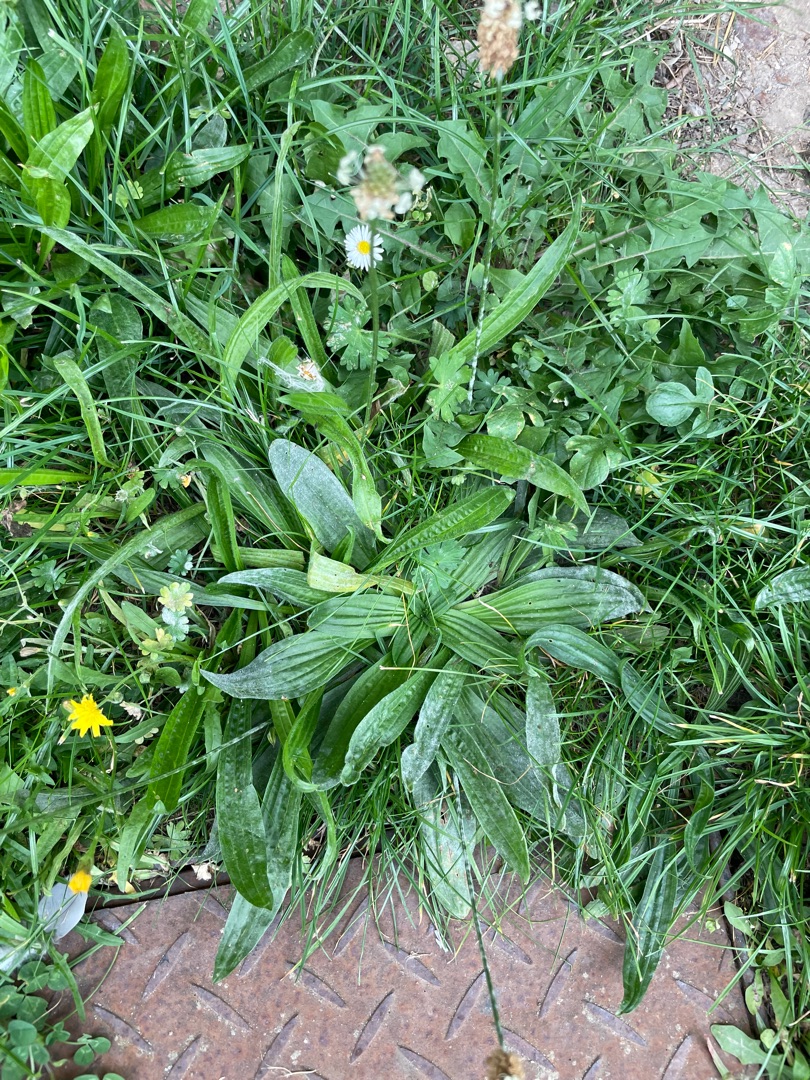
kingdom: Plantae
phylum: Tracheophyta
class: Magnoliopsida
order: Lamiales
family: Plantaginaceae
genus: Plantago
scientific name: Plantago lanceolata
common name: Lancet-vejbred
